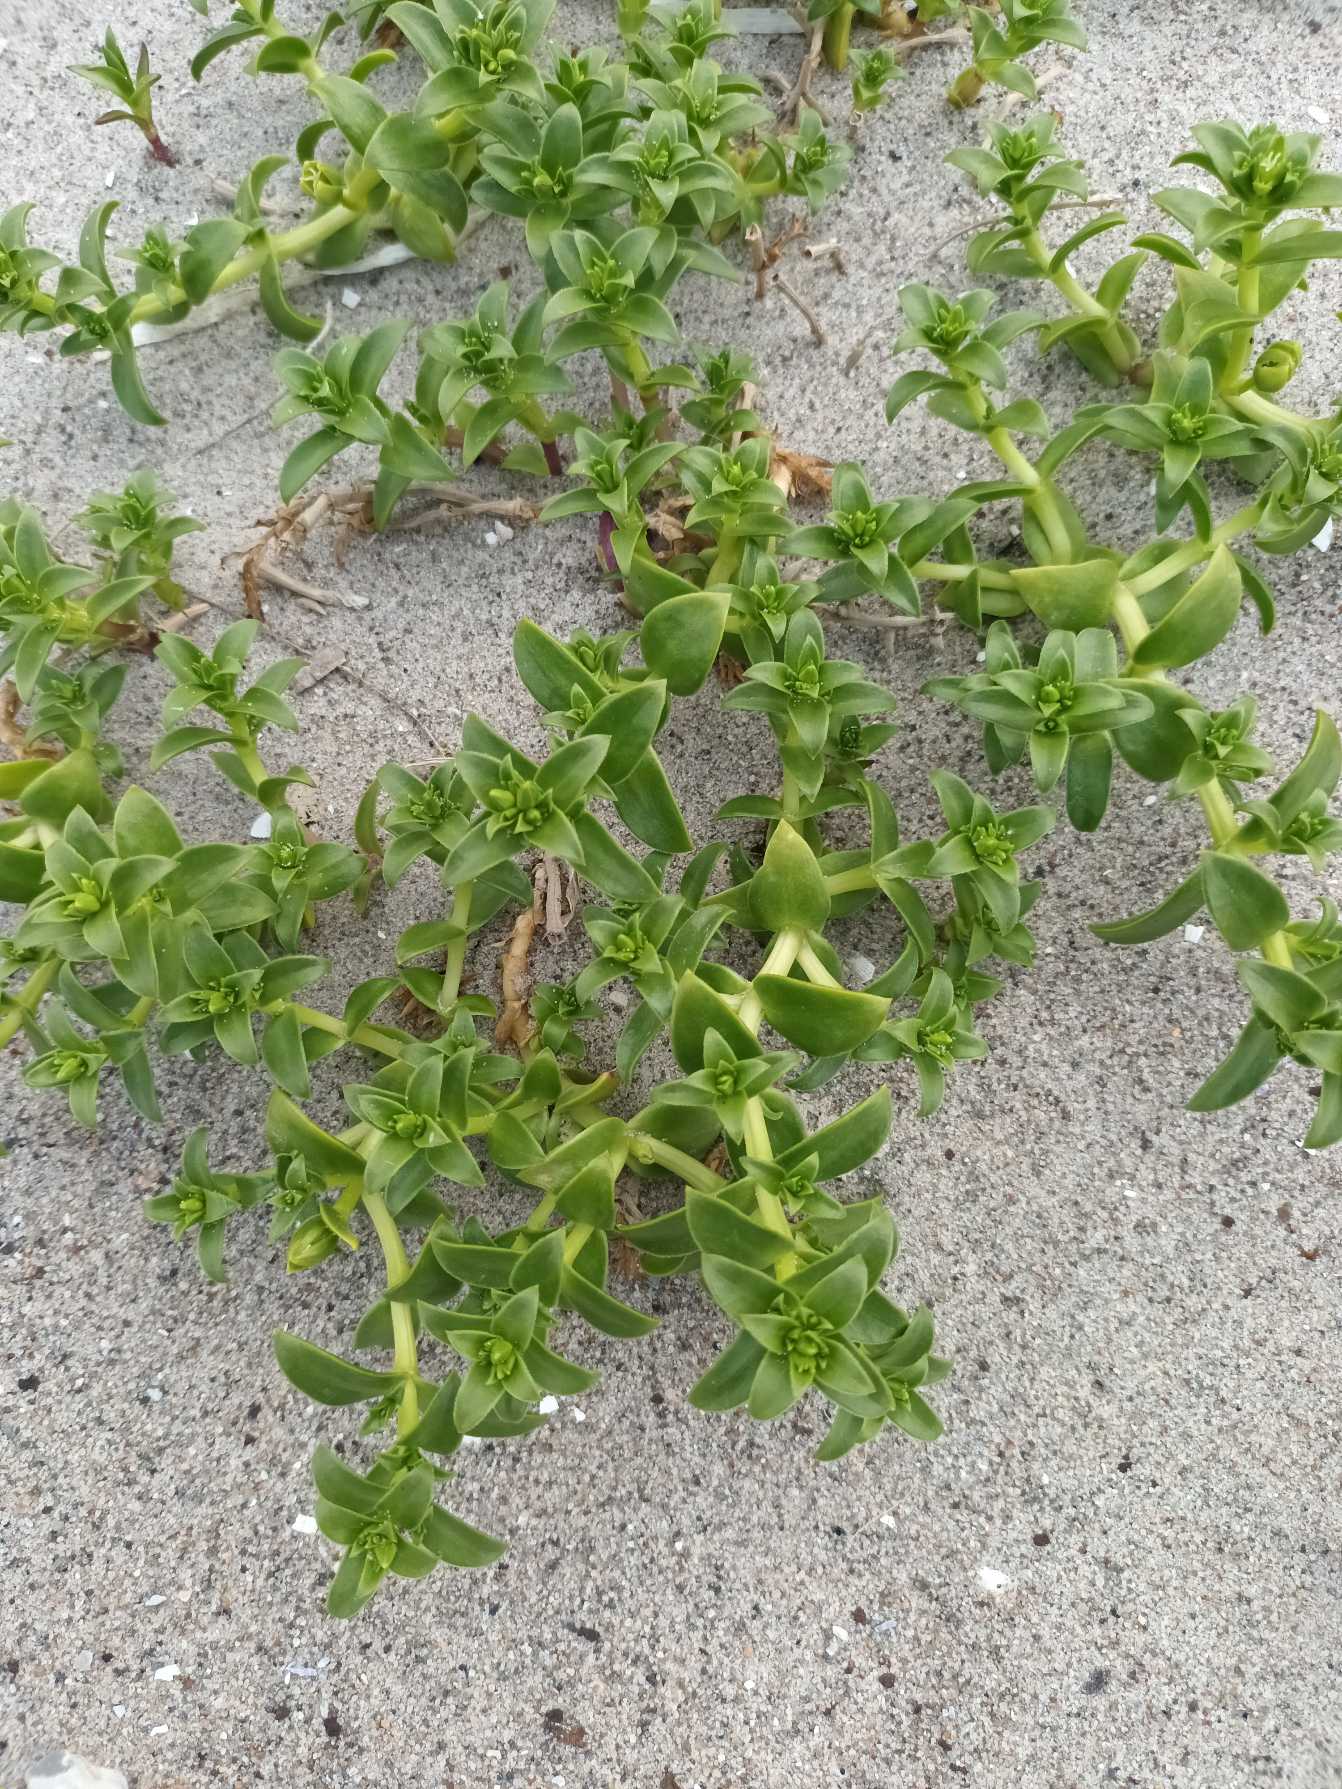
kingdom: Plantae
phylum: Tracheophyta
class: Magnoliopsida
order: Caryophyllales
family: Caryophyllaceae
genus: Honckenya
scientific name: Honckenya peploides
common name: Strandarve
